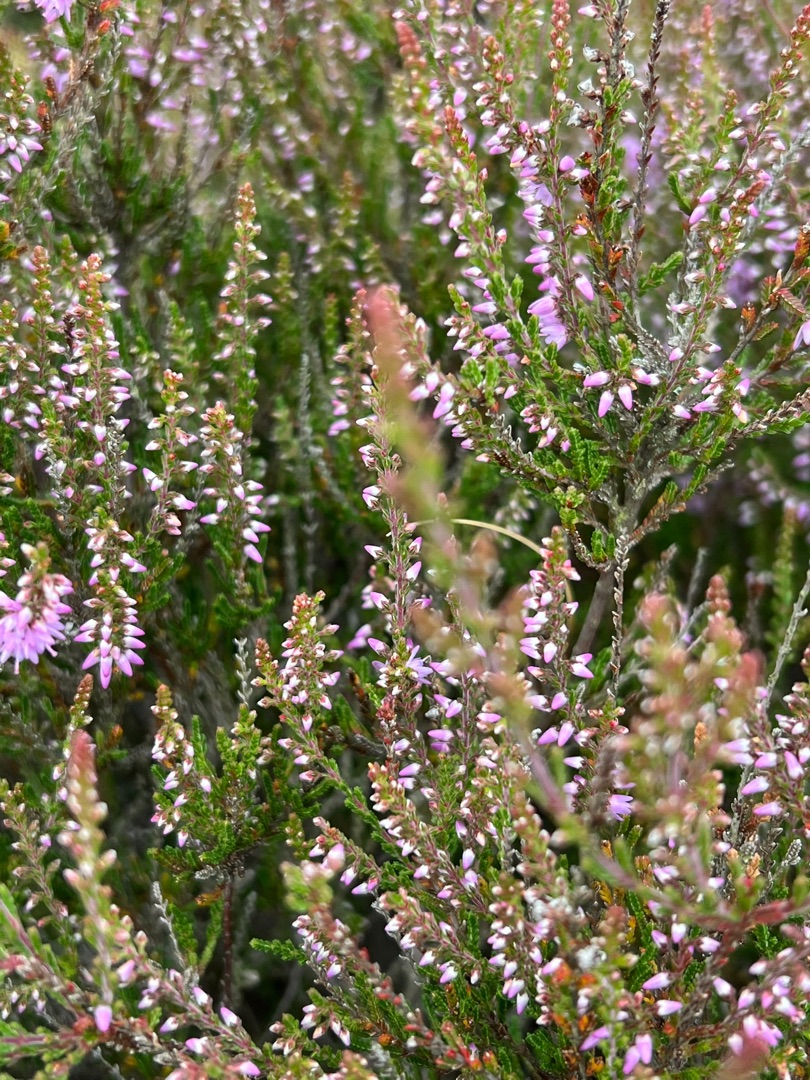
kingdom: Plantae
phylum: Tracheophyta
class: Magnoliopsida
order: Ericales
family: Ericaceae
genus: Calluna
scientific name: Calluna vulgaris
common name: Hedelyng
